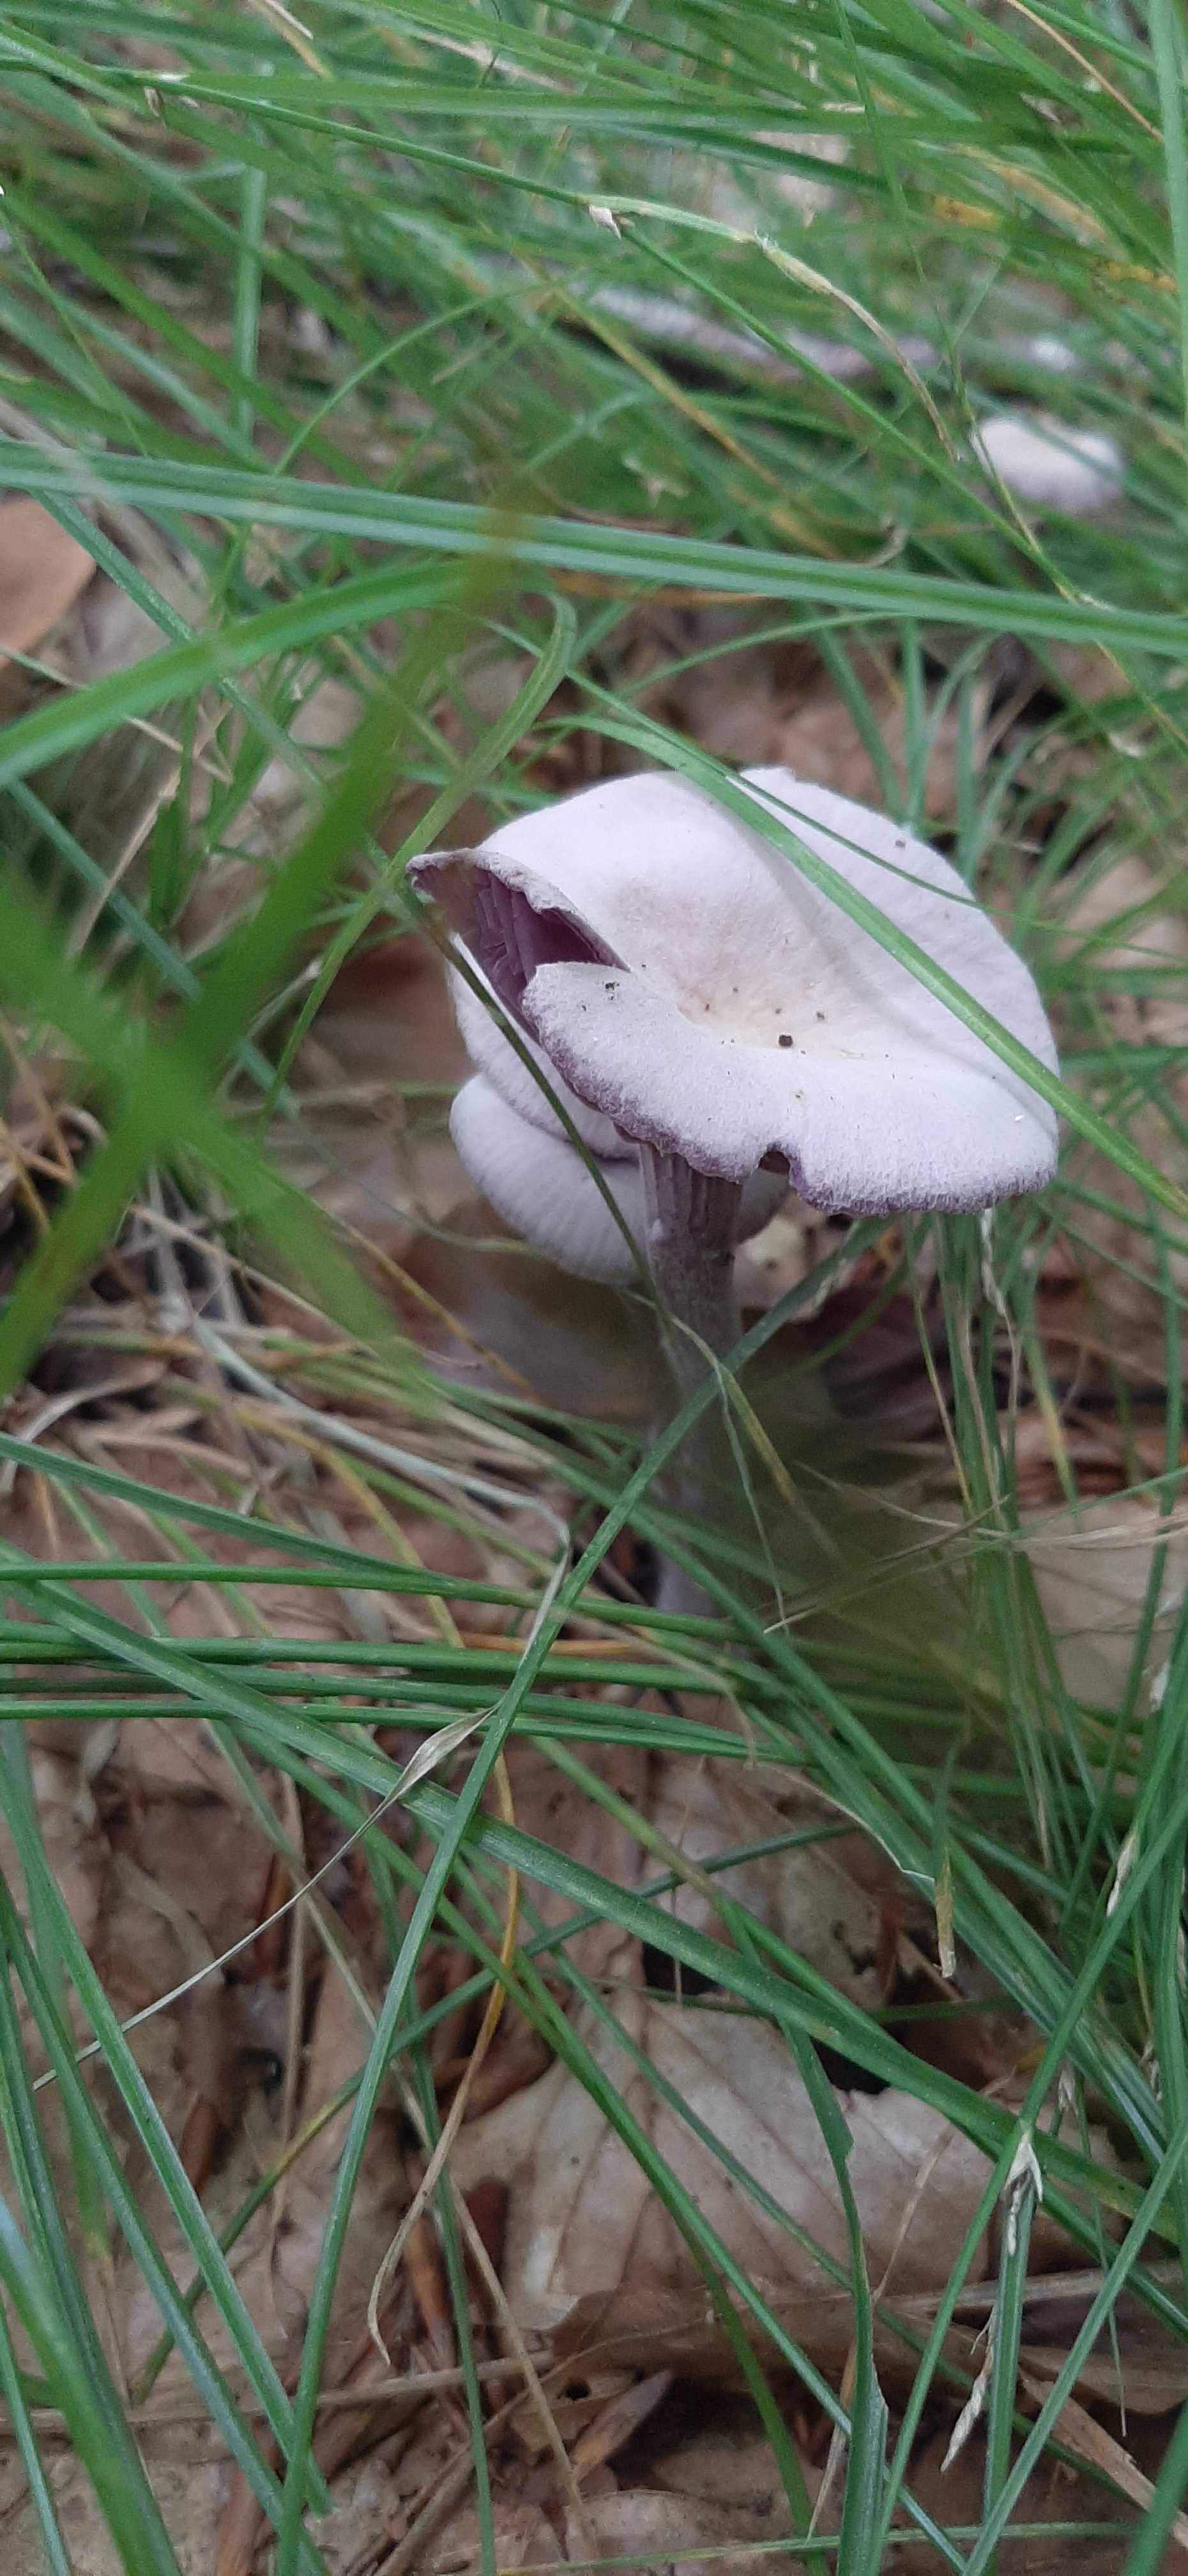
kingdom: Fungi
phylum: Basidiomycota
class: Agaricomycetes
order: Agaricales
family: Hydnangiaceae
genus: Laccaria
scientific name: Laccaria amethystina
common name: violet ametysthat
